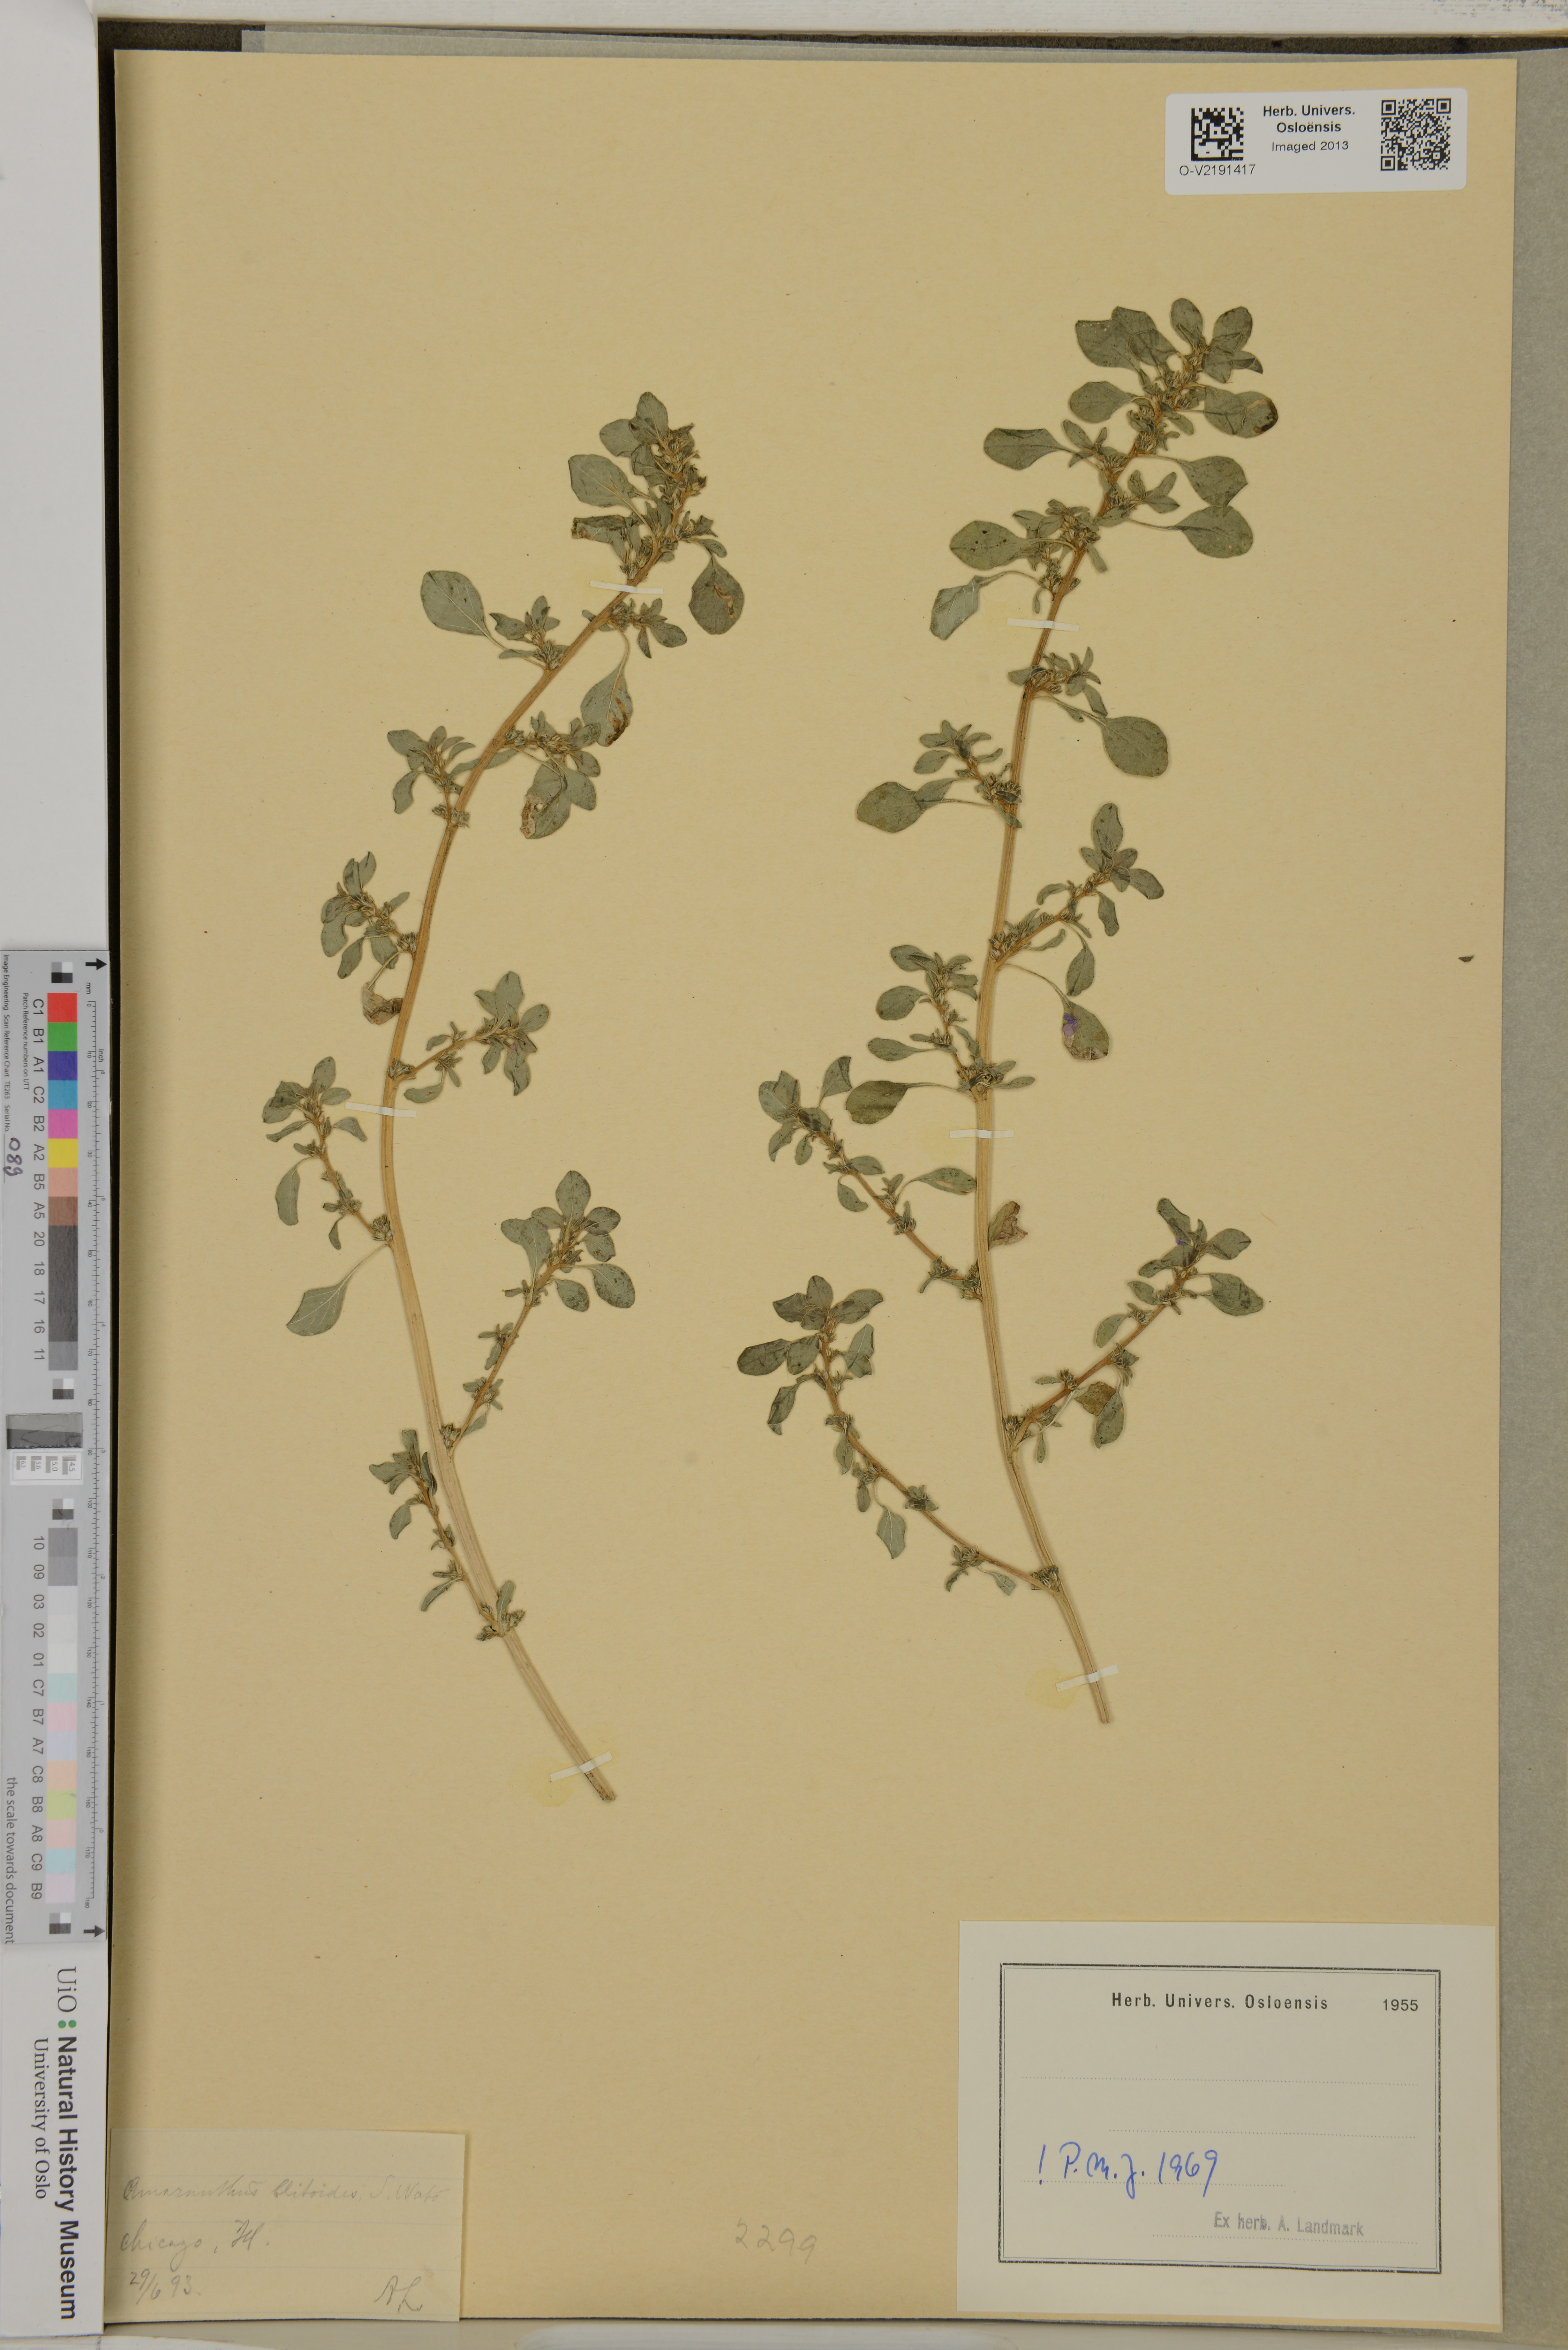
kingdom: Plantae
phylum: Tracheophyta
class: Magnoliopsida
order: Caryophyllales
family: Amaranthaceae
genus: Amaranthus
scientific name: Amaranthus blitoides
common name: Prostrate pigweed
